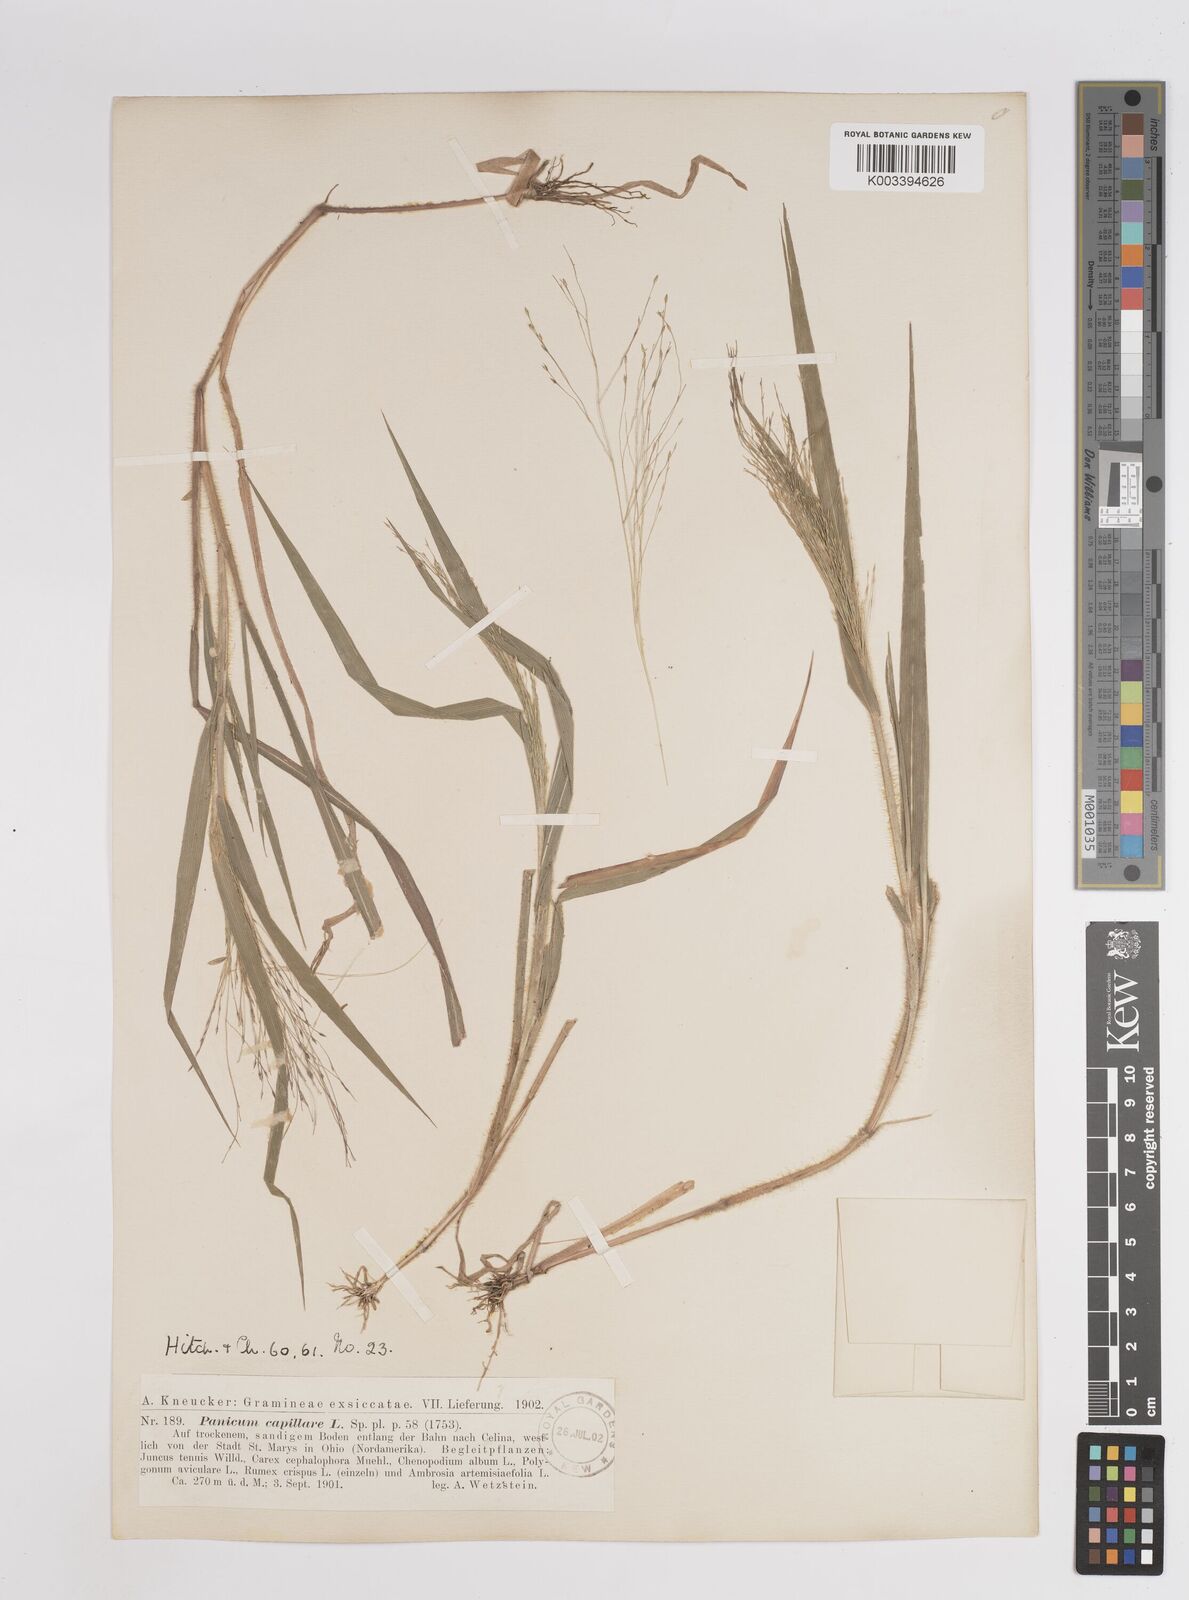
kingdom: Plantae
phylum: Tracheophyta
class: Liliopsida
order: Poales
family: Poaceae
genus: Panicum
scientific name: Panicum capillare
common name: Witch-grass
